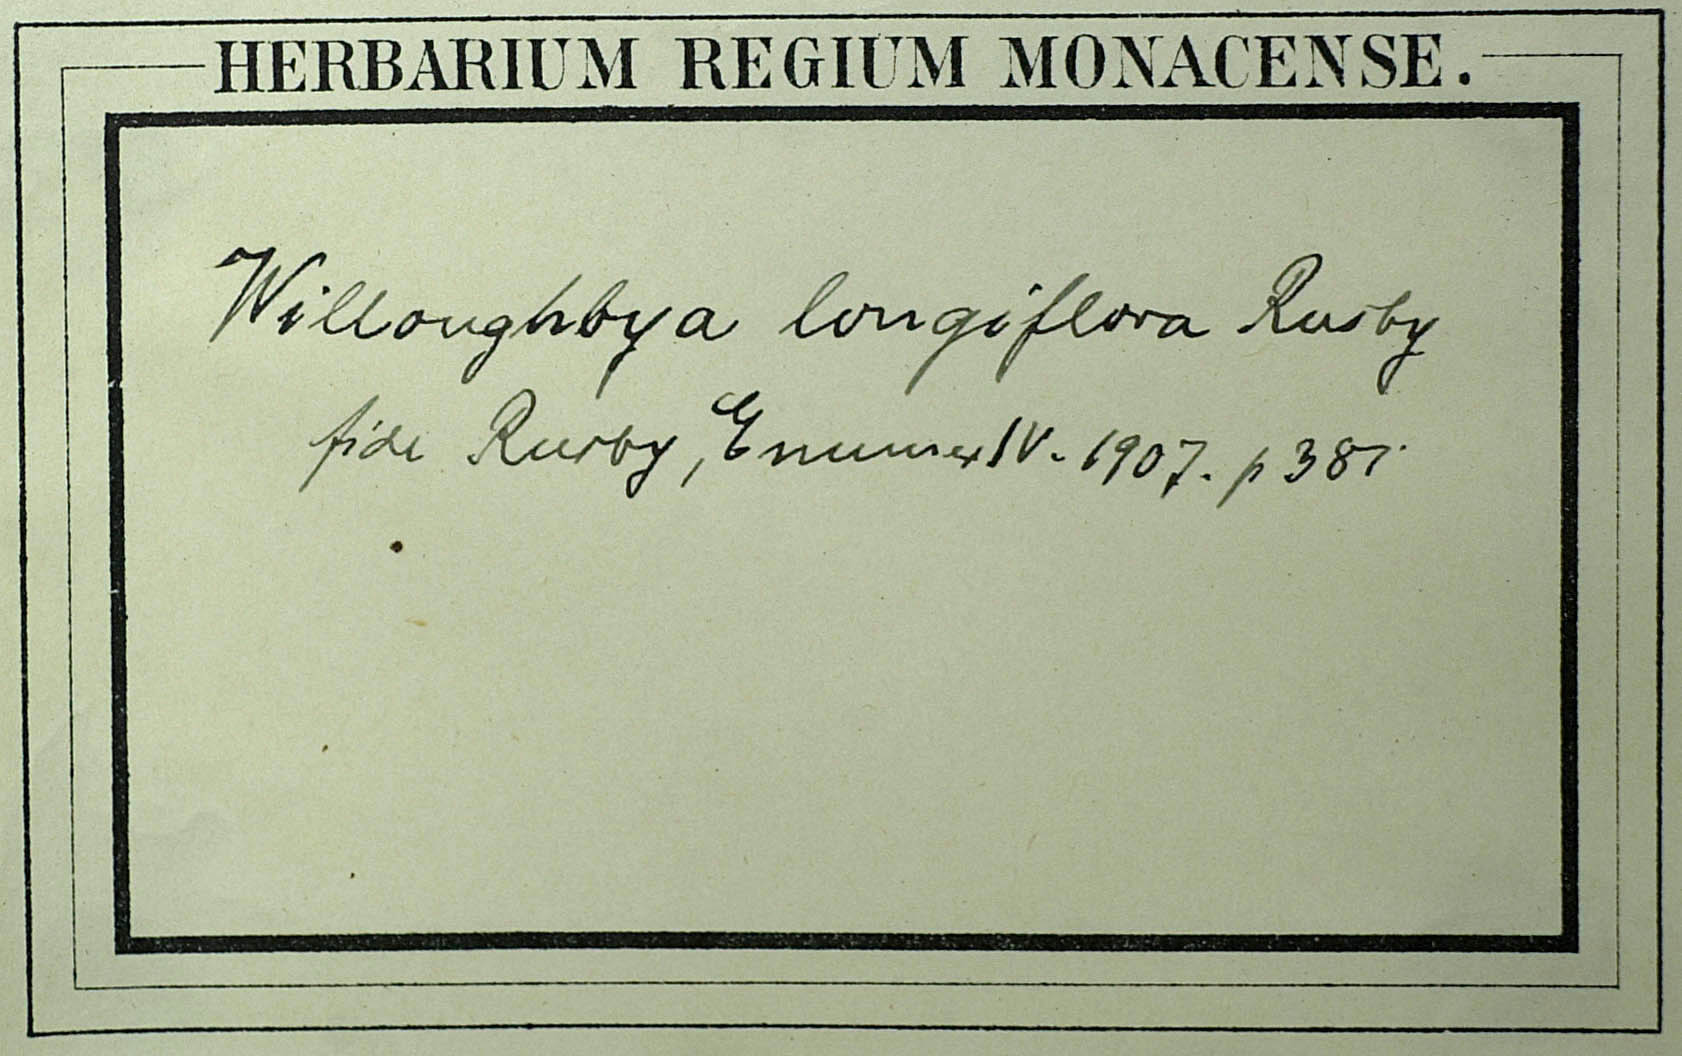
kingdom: Plantae
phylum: Tracheophyta
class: Magnoliopsida
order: Asterales
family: Asteraceae
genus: Mikania
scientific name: Mikania longiflora
